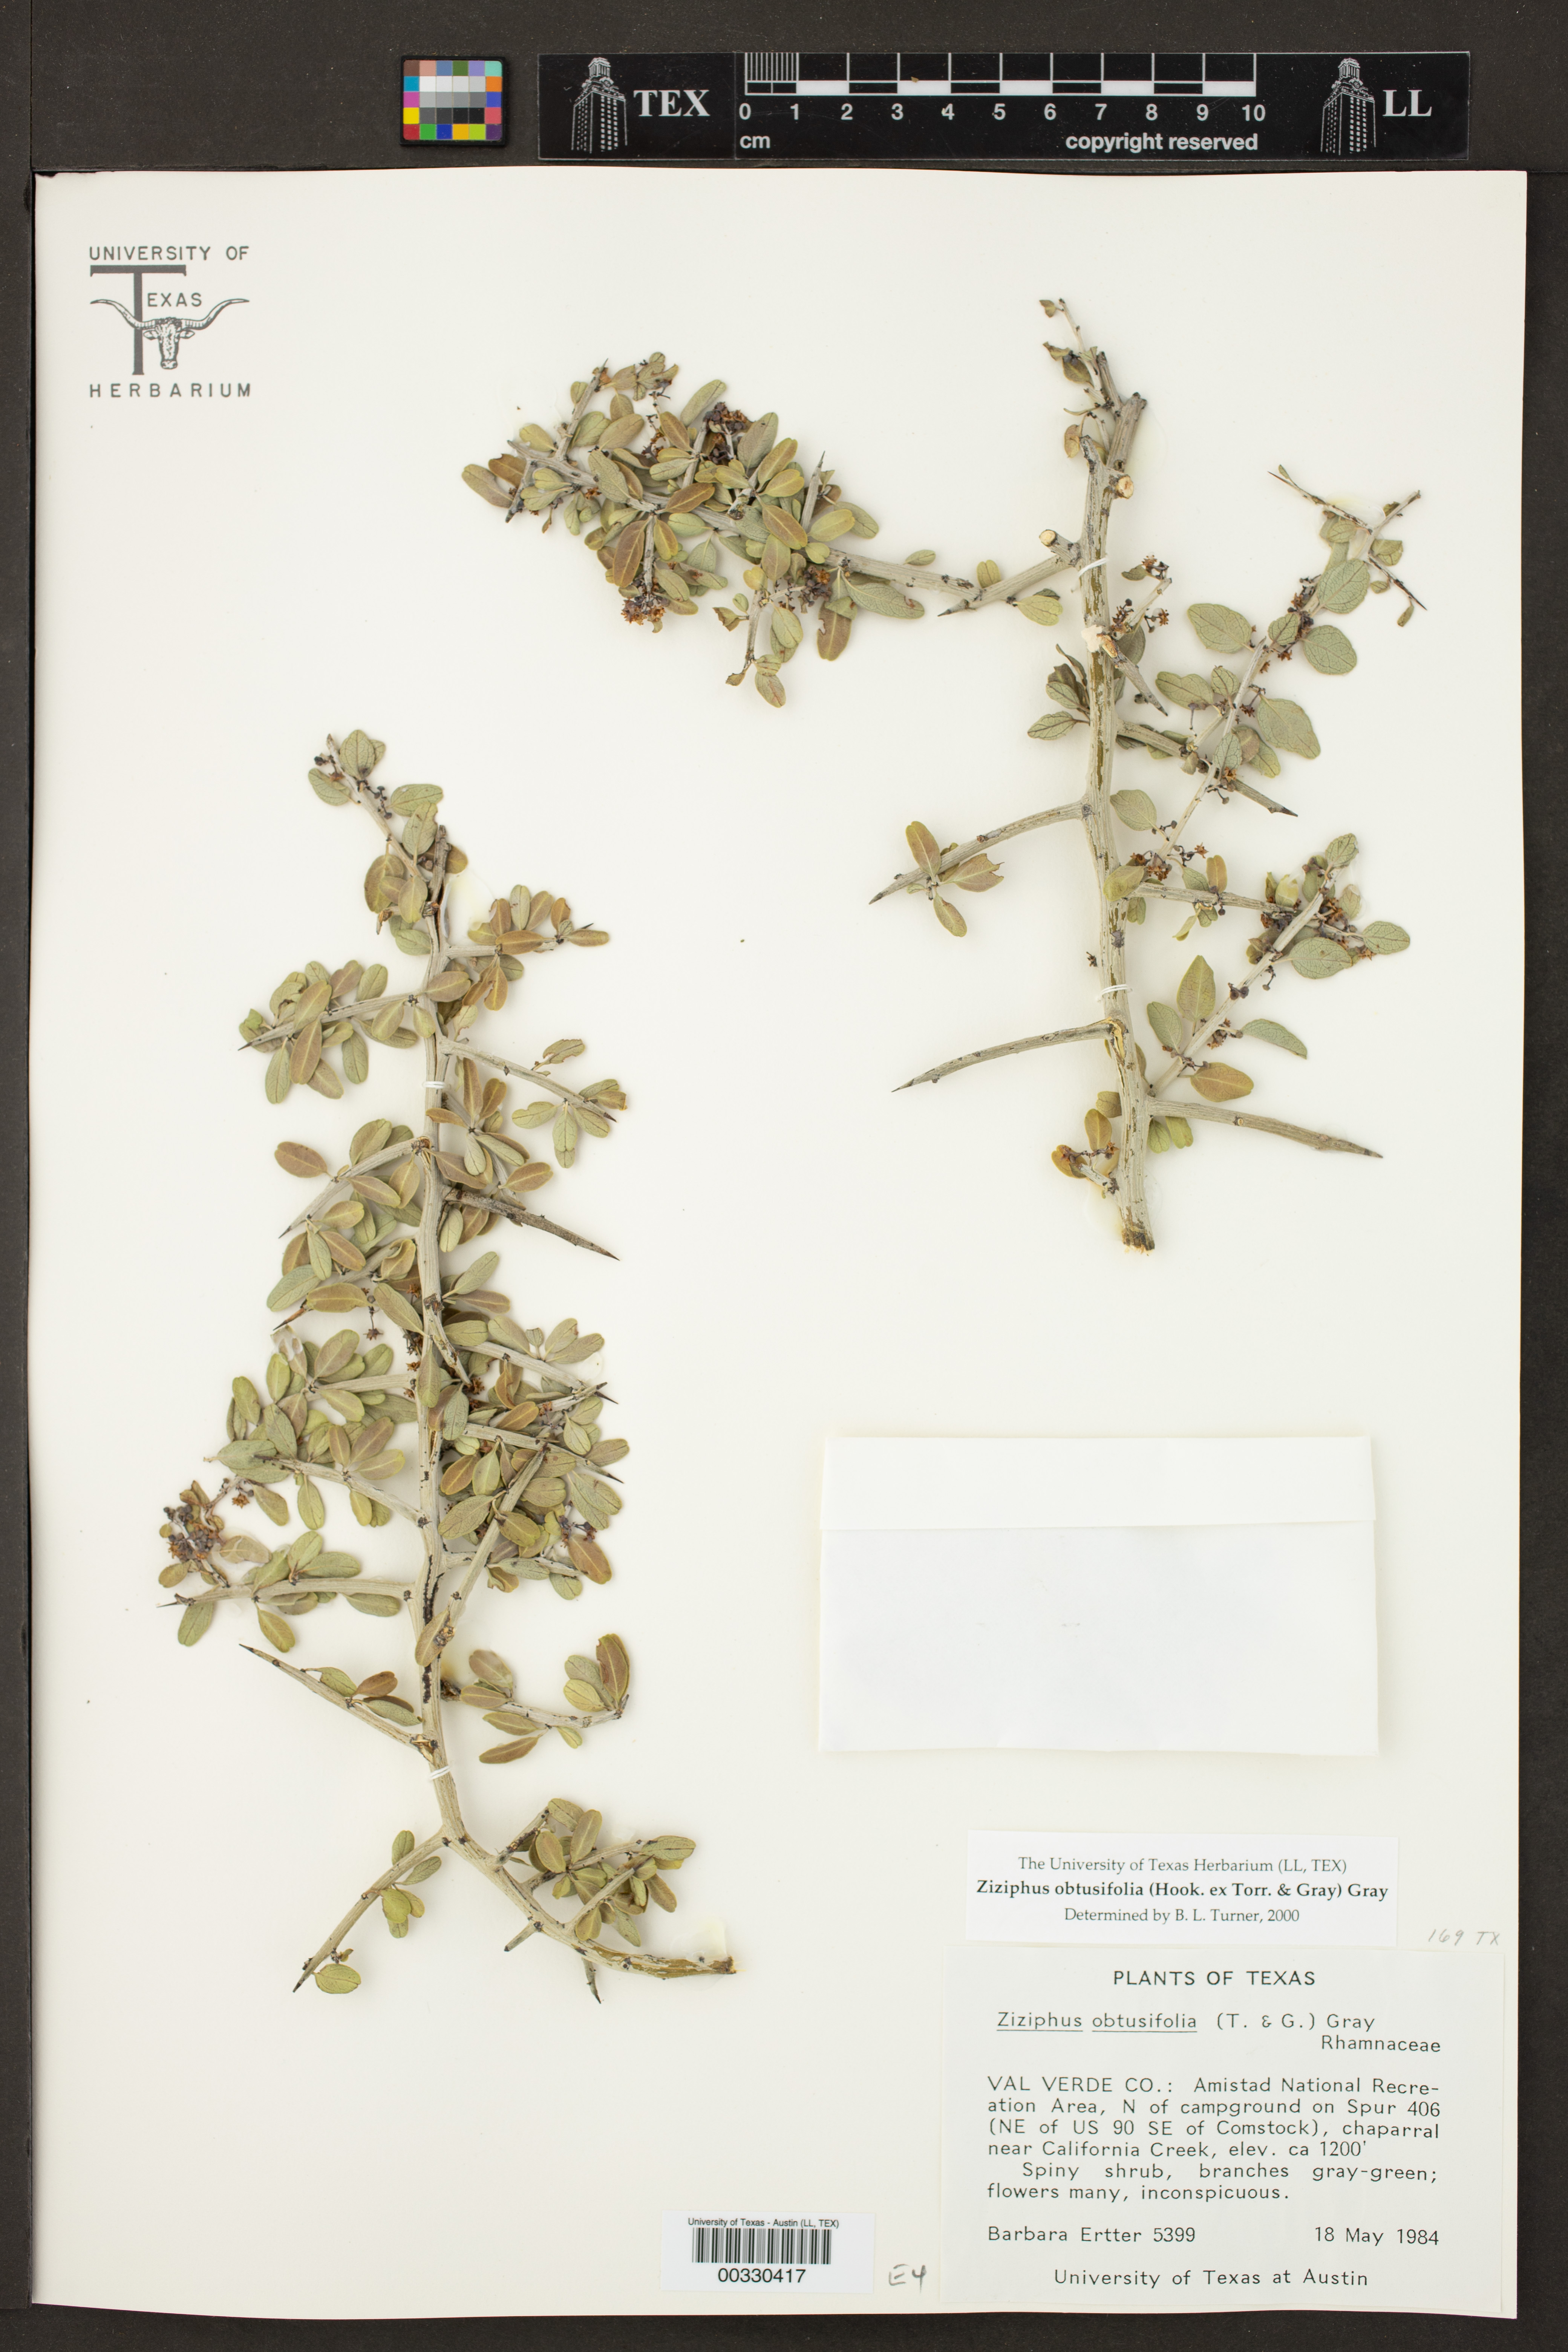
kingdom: Plantae
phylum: Tracheophyta
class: Magnoliopsida
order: Rosales
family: Rhamnaceae
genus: Sarcomphalus
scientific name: Sarcomphalus obtusifolius
